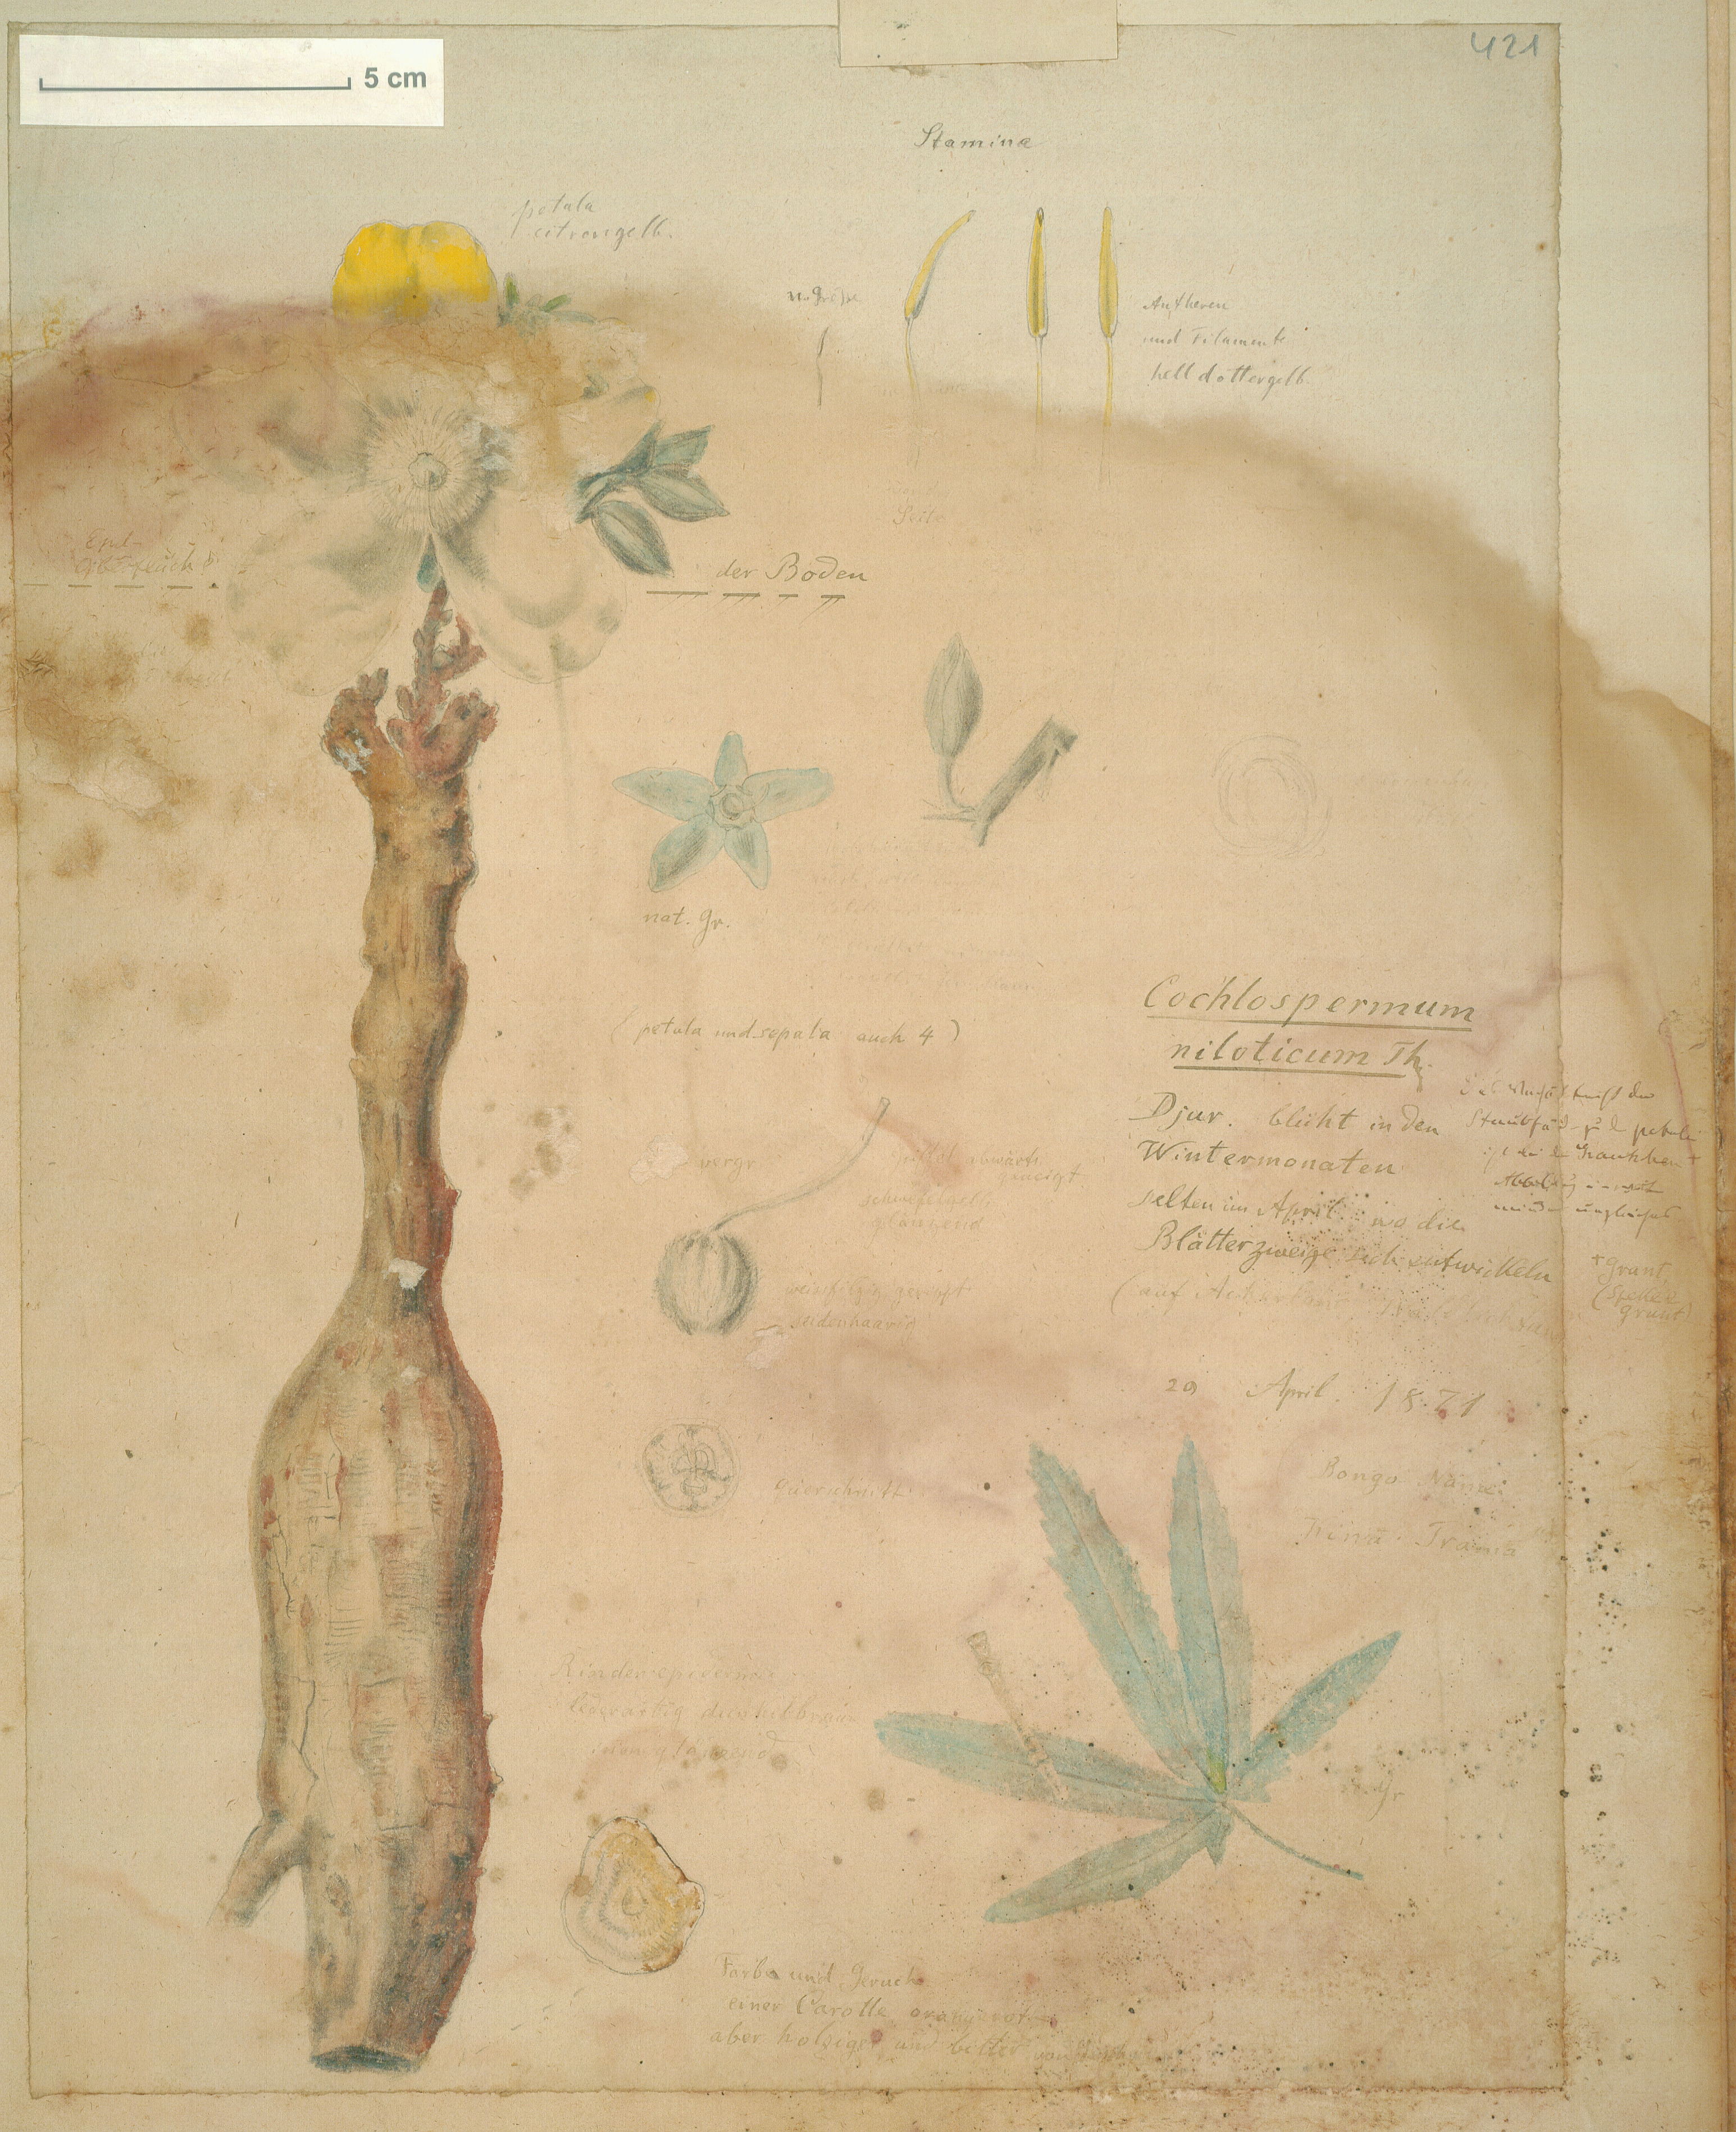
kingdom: Plantae
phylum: Tracheophyta
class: Magnoliopsida
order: Malvales
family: Cochlospermaceae
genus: Cochlospermum
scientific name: Cochlospermum tinctorium
